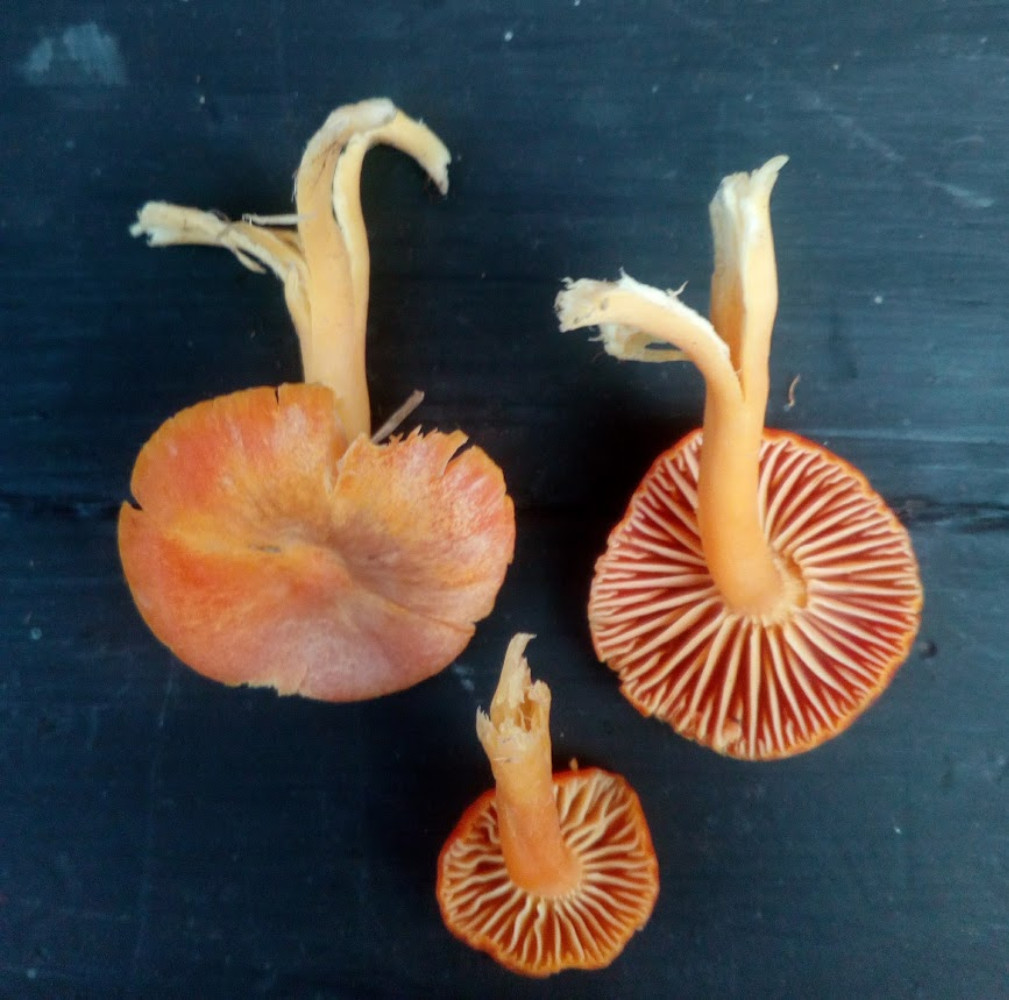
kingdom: Fungi
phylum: Basidiomycota
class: Agaricomycetes
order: Agaricales
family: Hygrophoraceae
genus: Hygrocybe
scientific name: Hygrocybe reidii
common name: honning-vokshat
